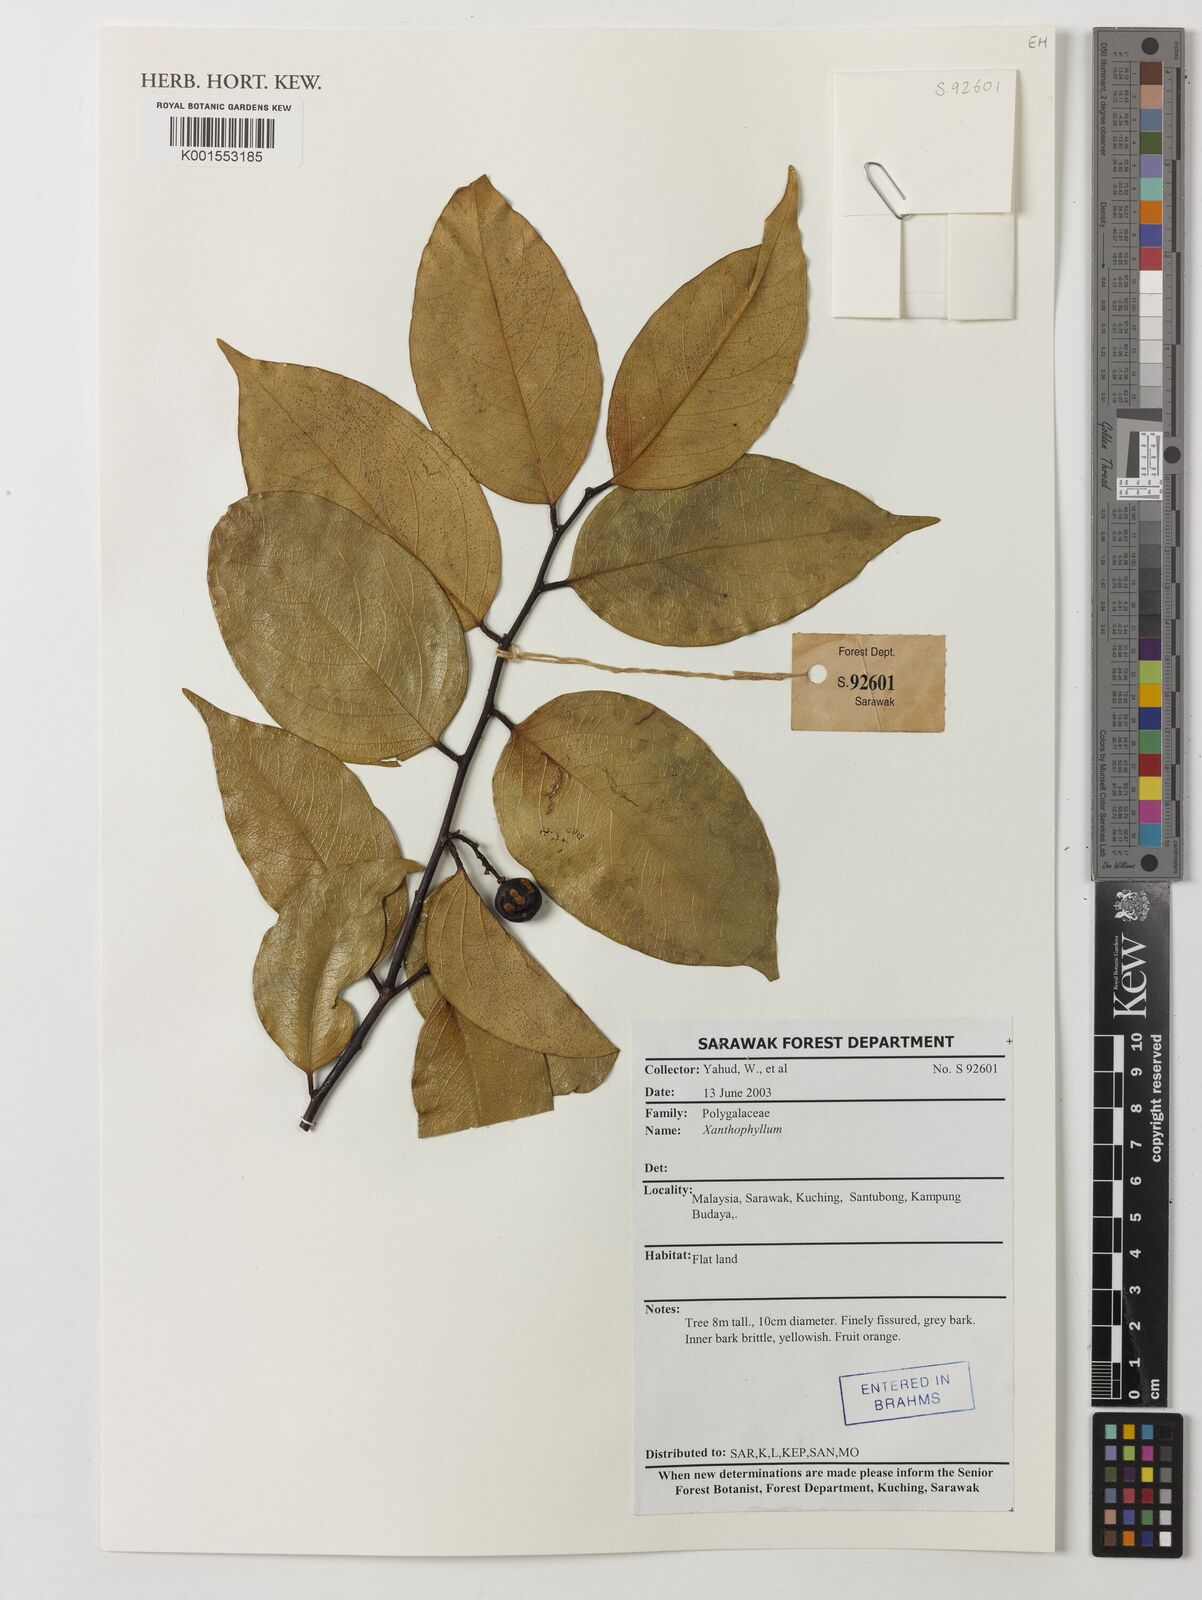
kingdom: Plantae
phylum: Tracheophyta
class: Magnoliopsida
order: Fabales
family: Polygalaceae
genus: Xanthophyllum
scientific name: Xanthophyllum
